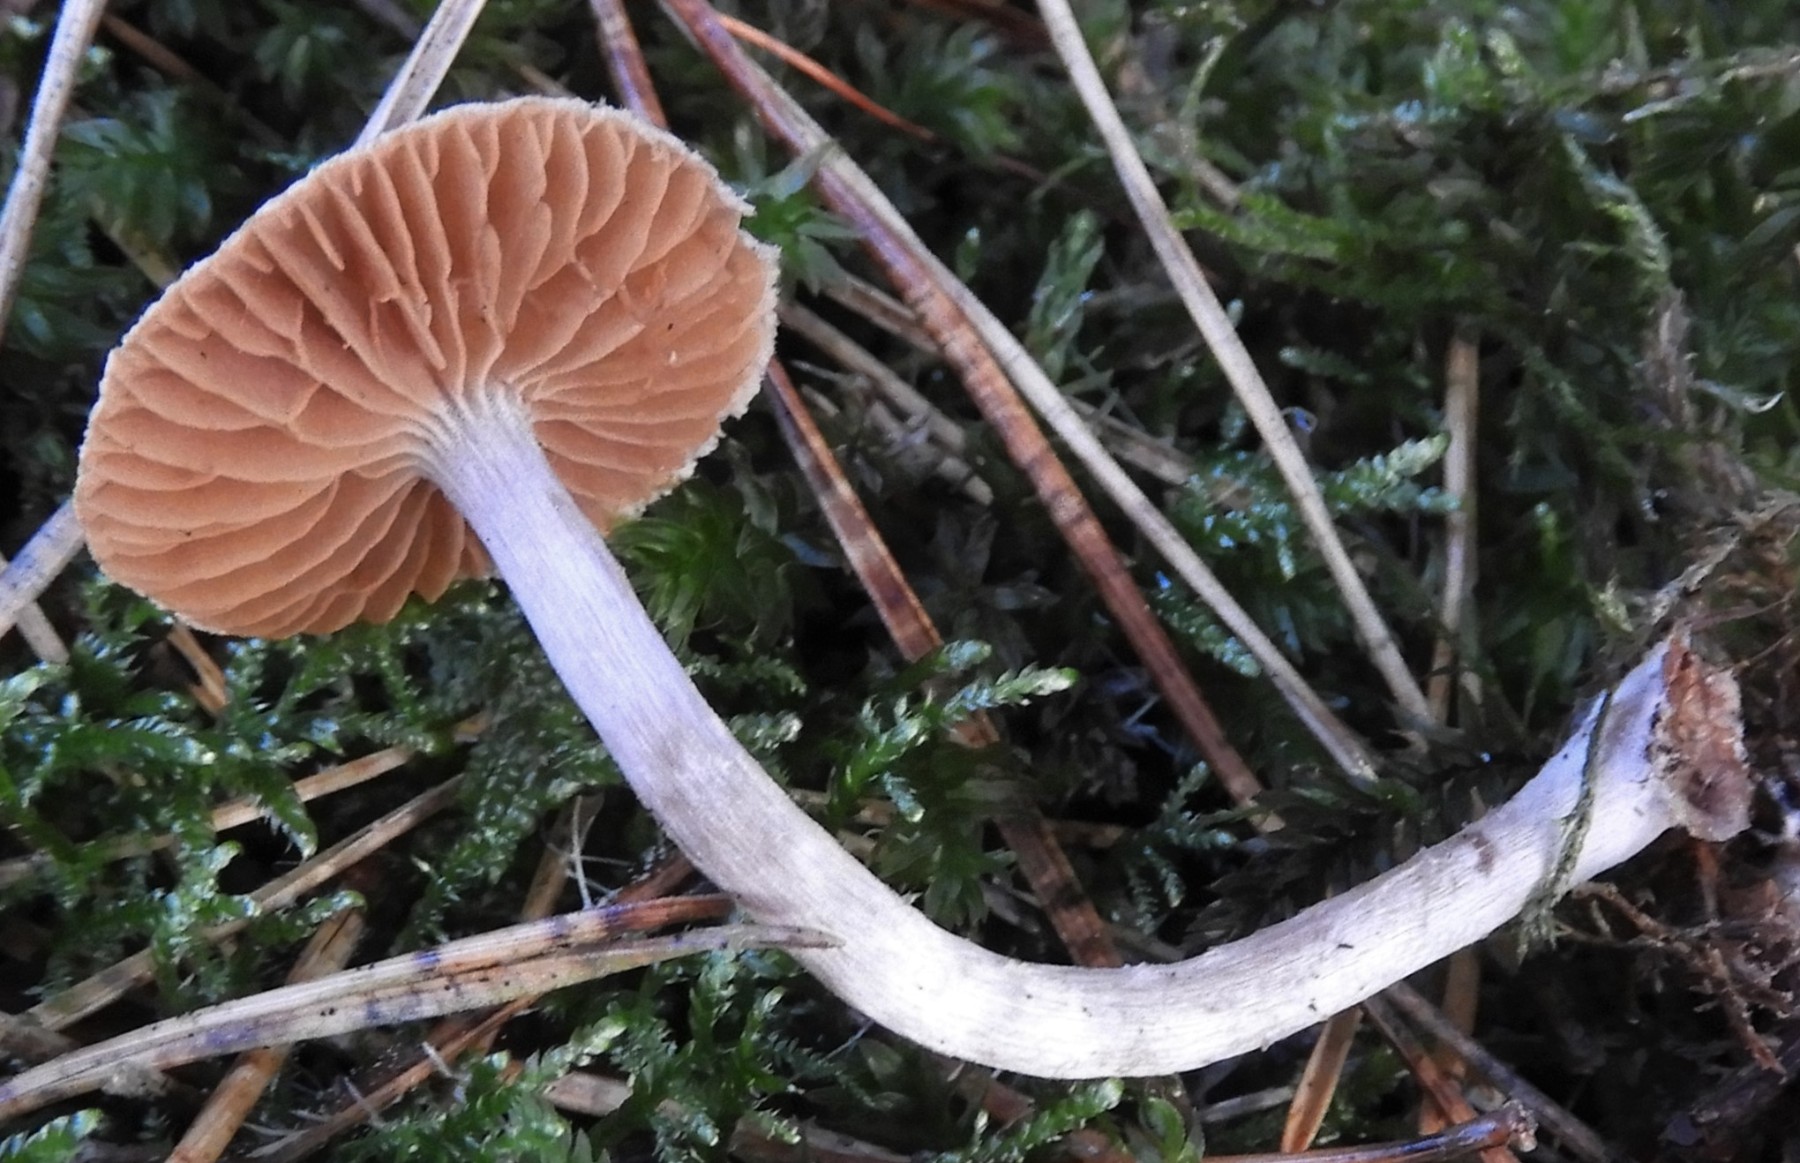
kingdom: Fungi
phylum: Basidiomycota
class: Agaricomycetes
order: Agaricales
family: Cortinariaceae
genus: Cortinarius
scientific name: Cortinarius
